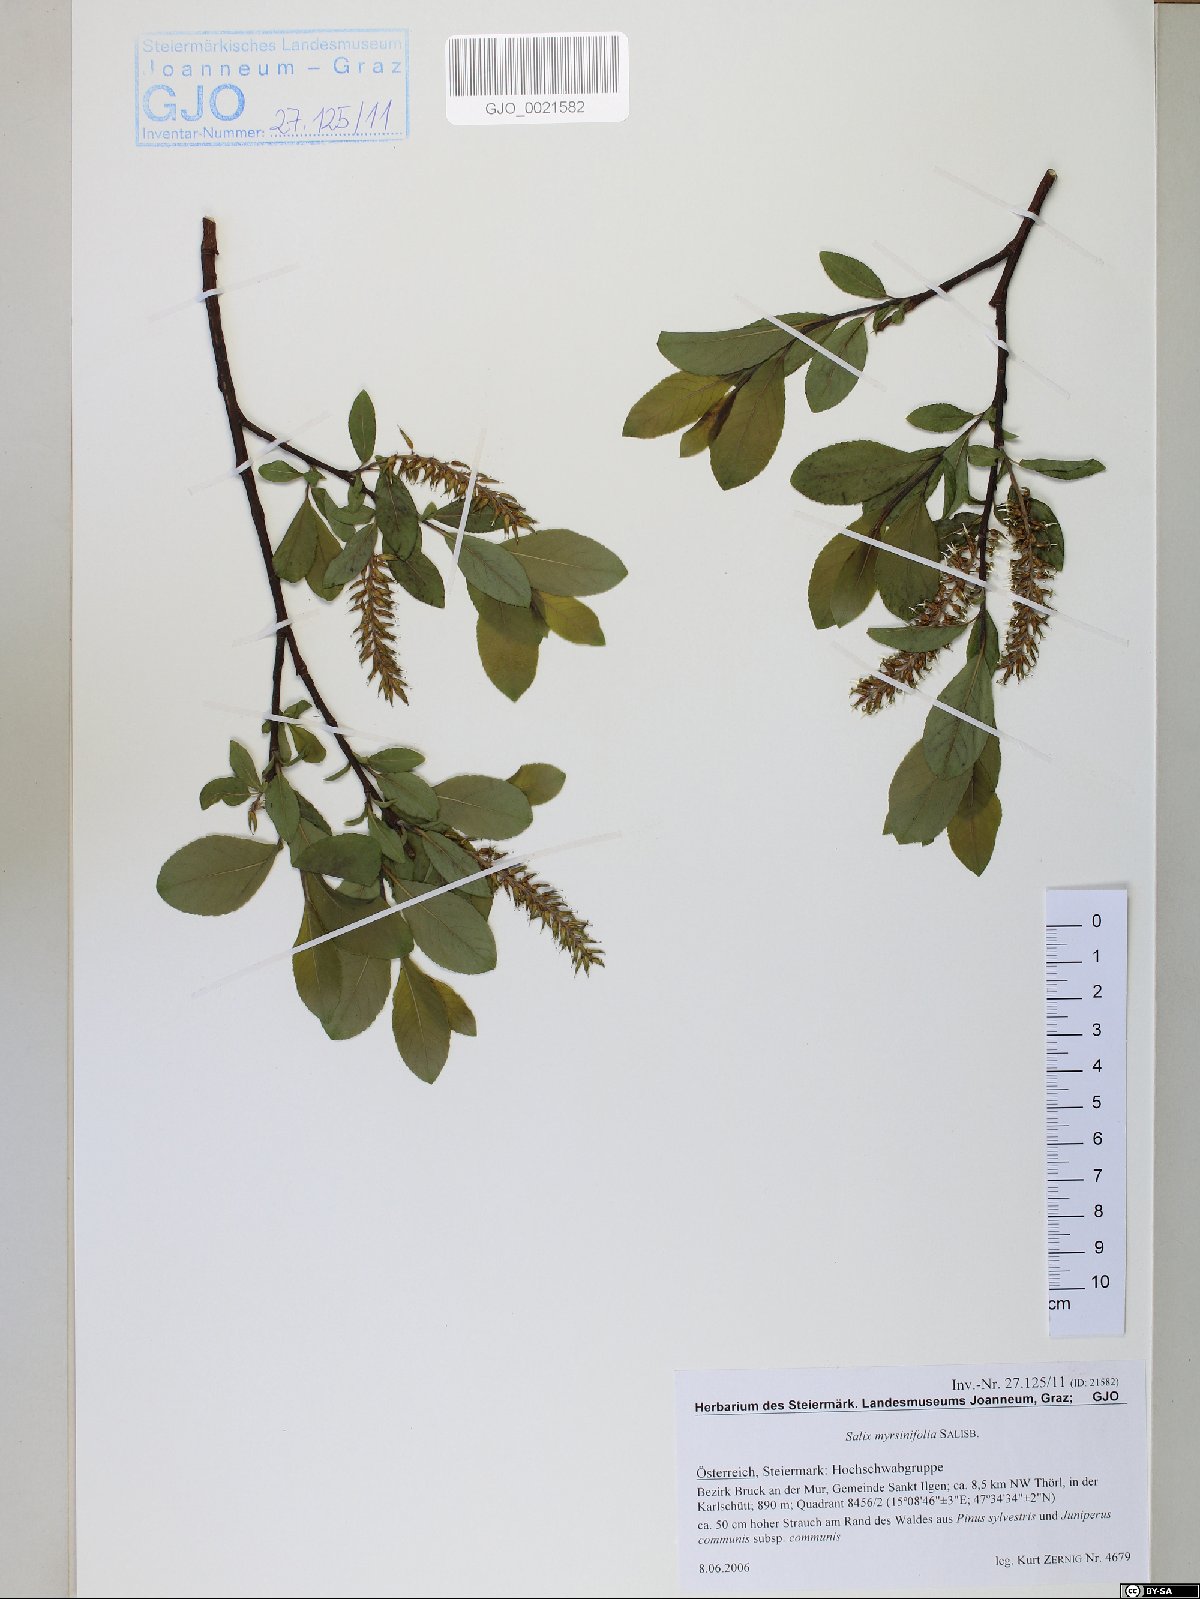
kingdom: Plantae
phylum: Tracheophyta
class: Magnoliopsida
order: Malpighiales
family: Salicaceae
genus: Salix
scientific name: Salix myrsinifolia
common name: Dark-leaved willow
